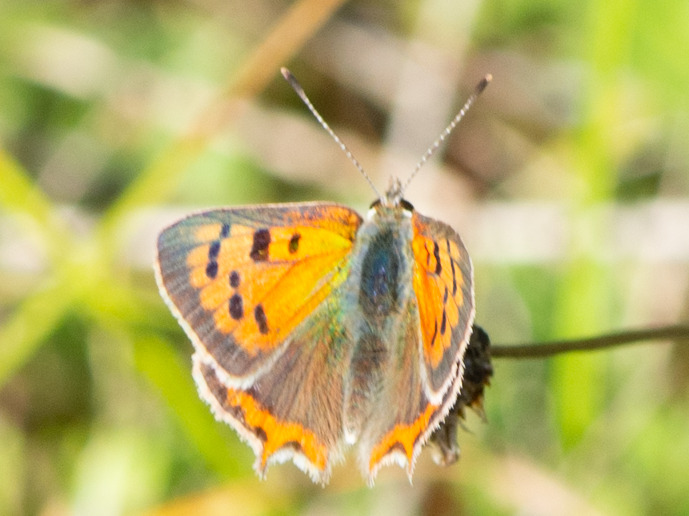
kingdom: Animalia
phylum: Arthropoda
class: Insecta
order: Lepidoptera
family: Lycaenidae
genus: Lycaena
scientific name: Lycaena phlaeas
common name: Lille ildfugl
